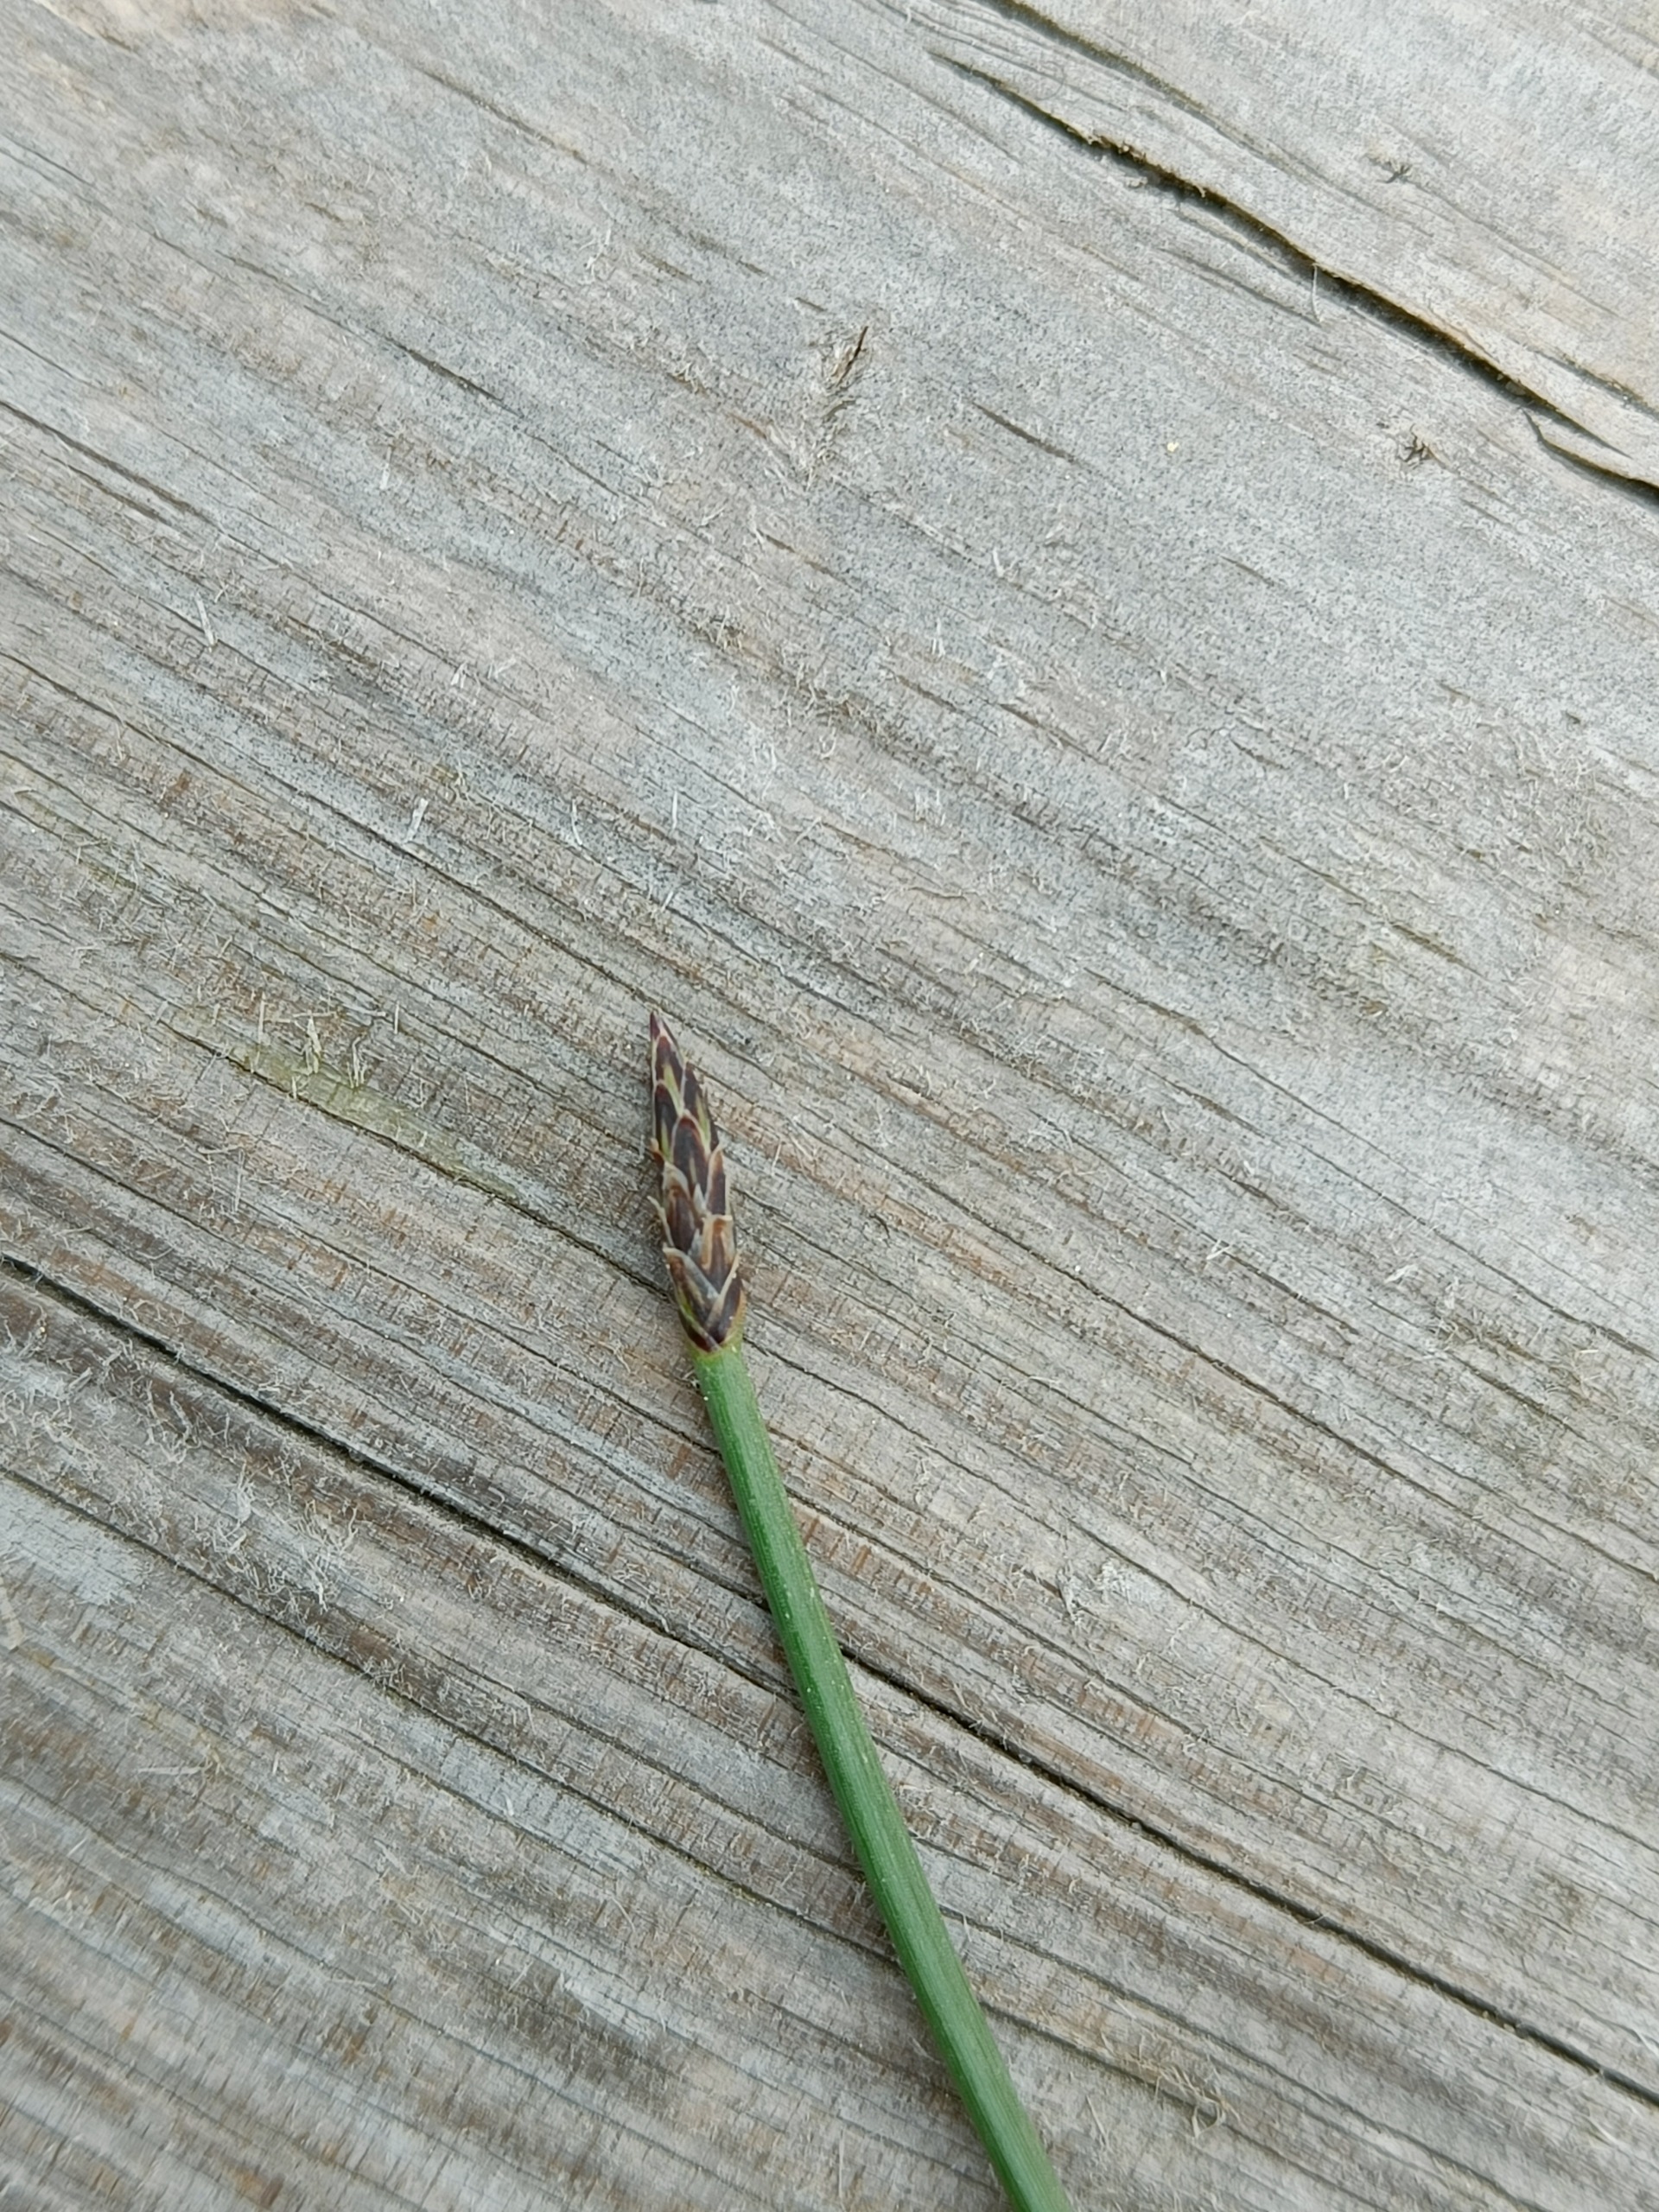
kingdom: Plantae
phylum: Tracheophyta
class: Liliopsida
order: Poales
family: Cyperaceae
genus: Eleocharis
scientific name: Eleocharis palustris
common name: Almindelig sumpstrå
